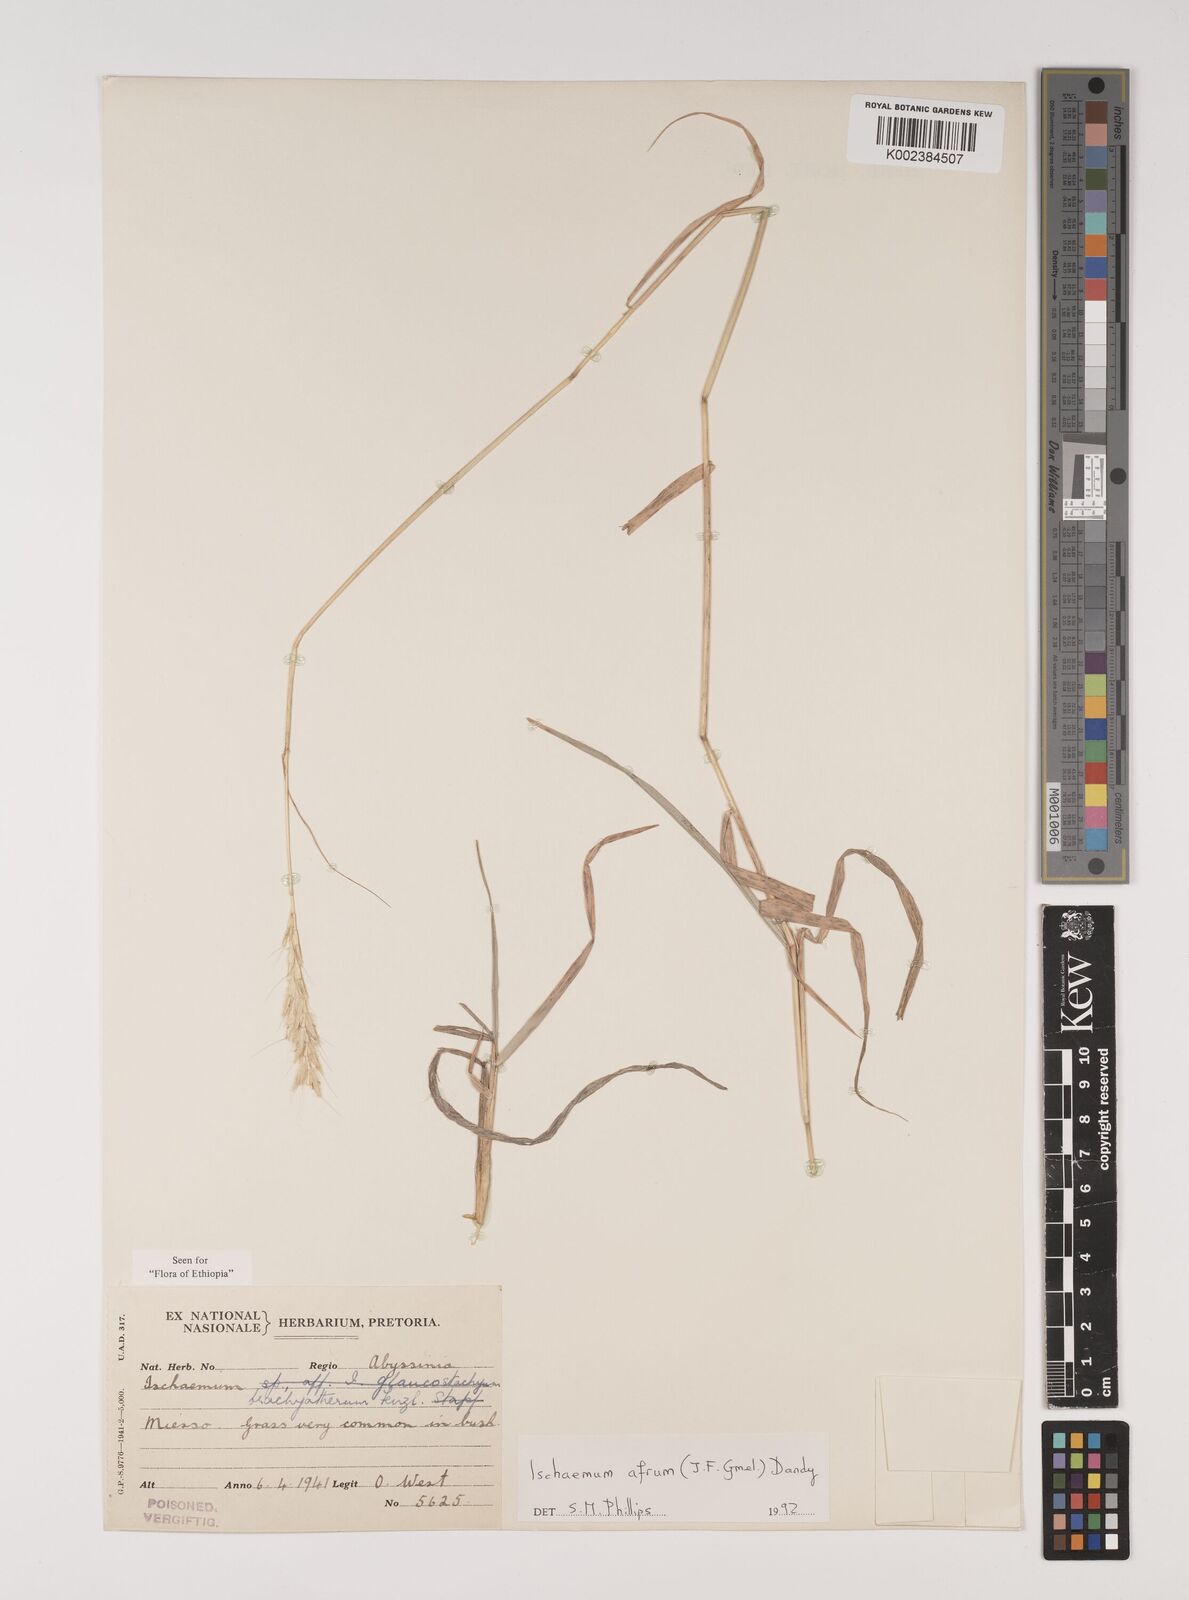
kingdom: Plantae
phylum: Tracheophyta
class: Liliopsida
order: Poales
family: Poaceae
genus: Ischaemum
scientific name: Ischaemum afrum
